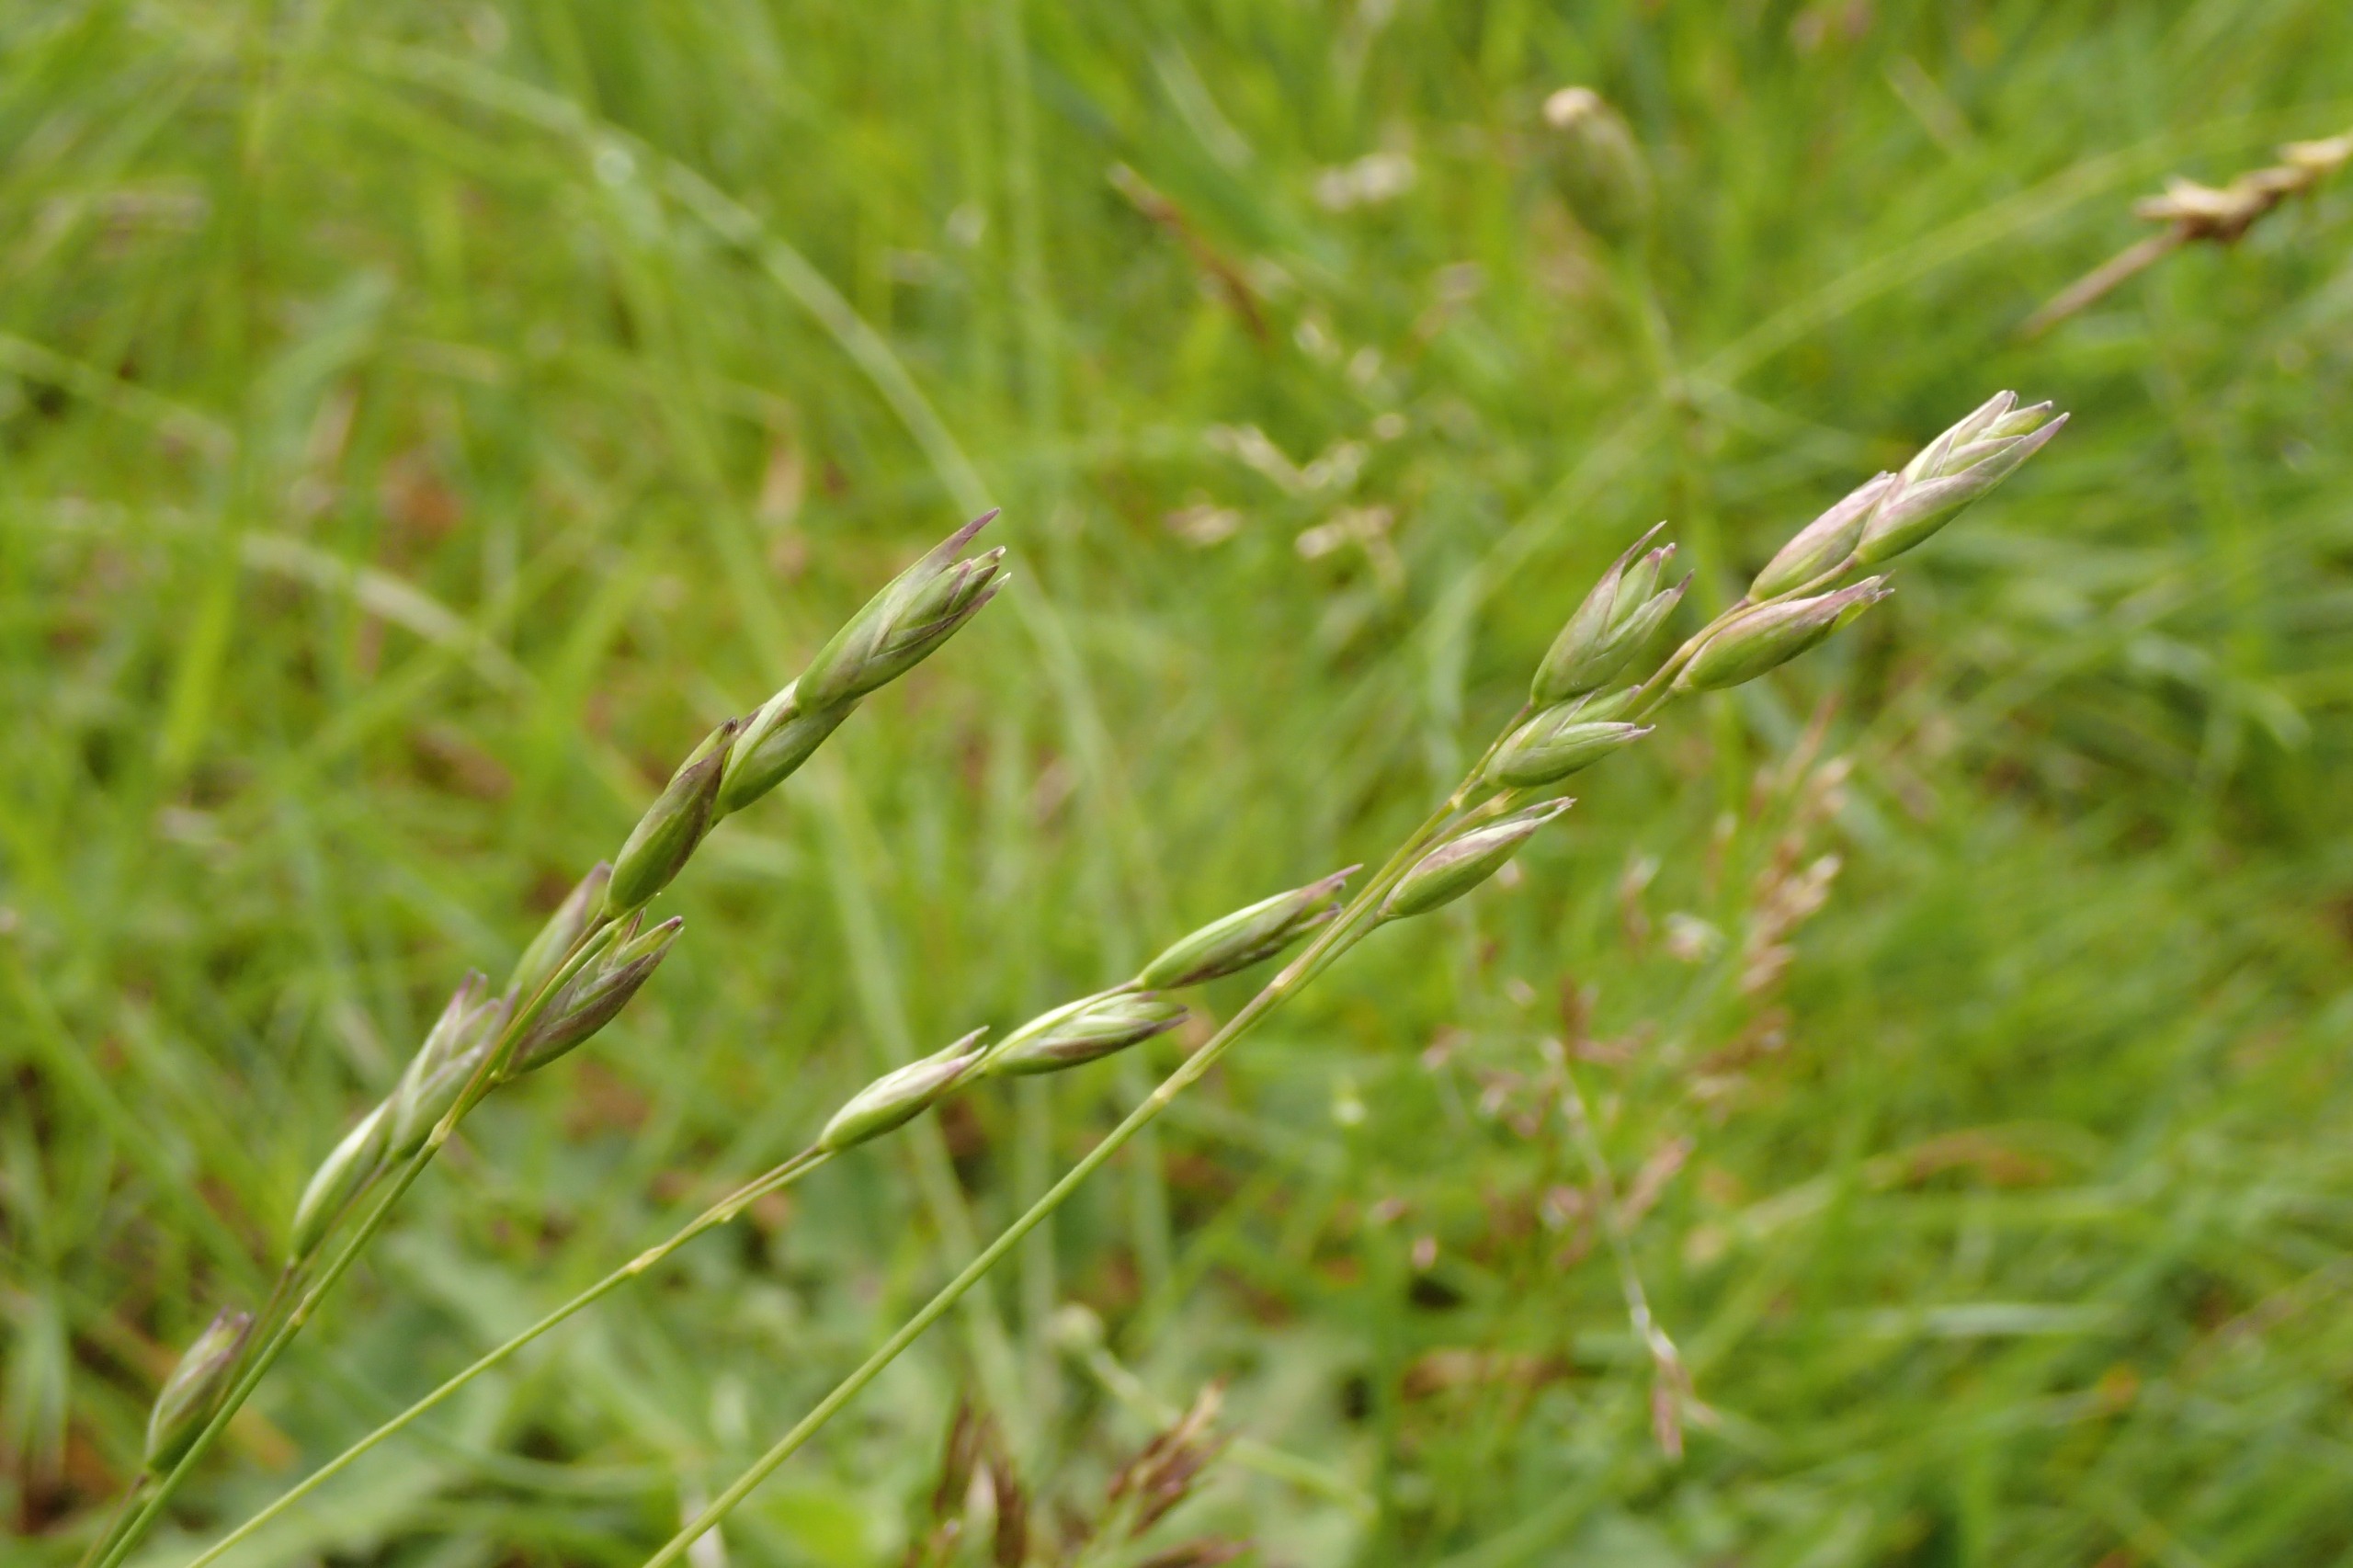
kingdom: Plantae
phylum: Tracheophyta
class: Liliopsida
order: Poales
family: Poaceae
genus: Danthonia
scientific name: Danthonia decumbens
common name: Tandbælg
